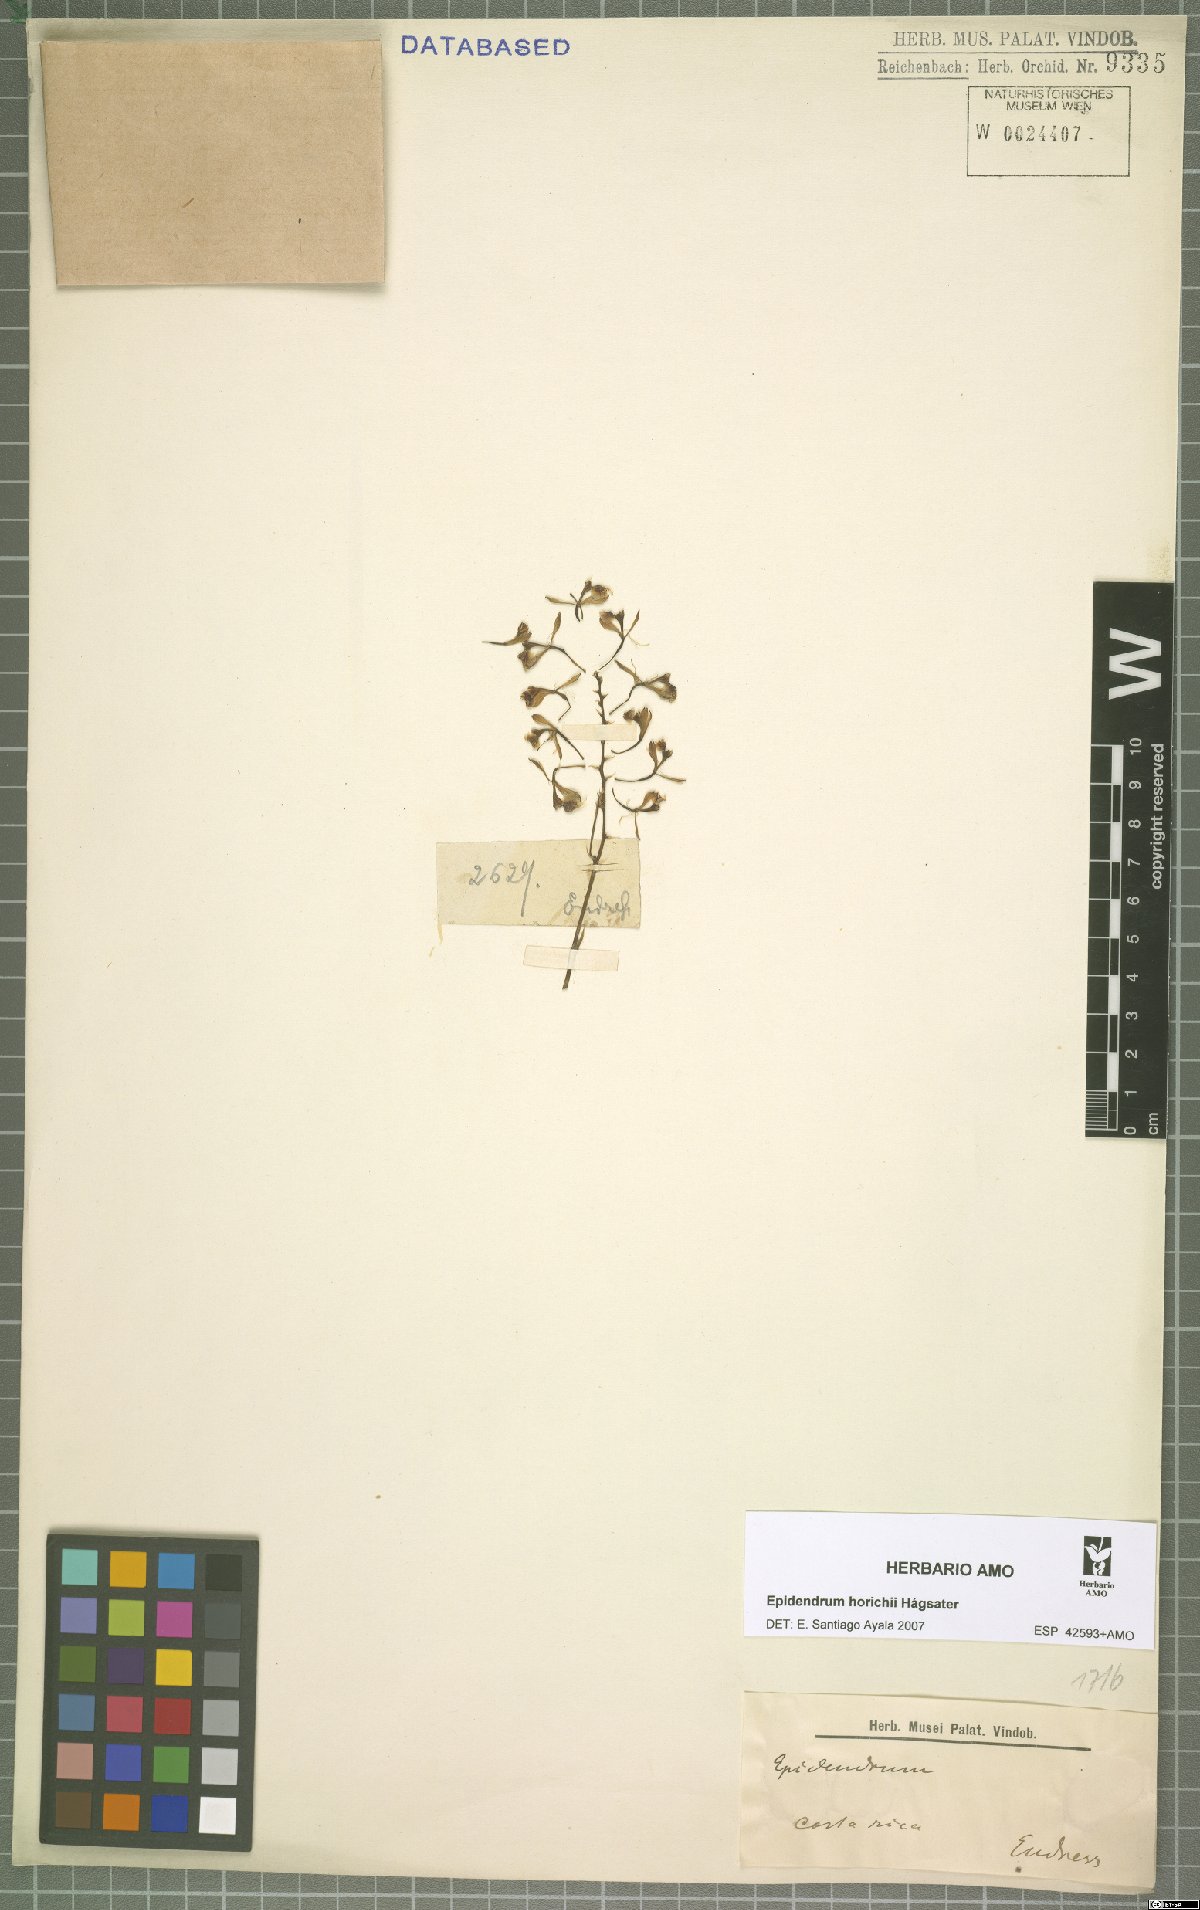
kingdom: Plantae
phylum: Tracheophyta
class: Liliopsida
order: Asparagales
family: Orchidaceae
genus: Epidendrum
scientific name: Epidendrum horichii
